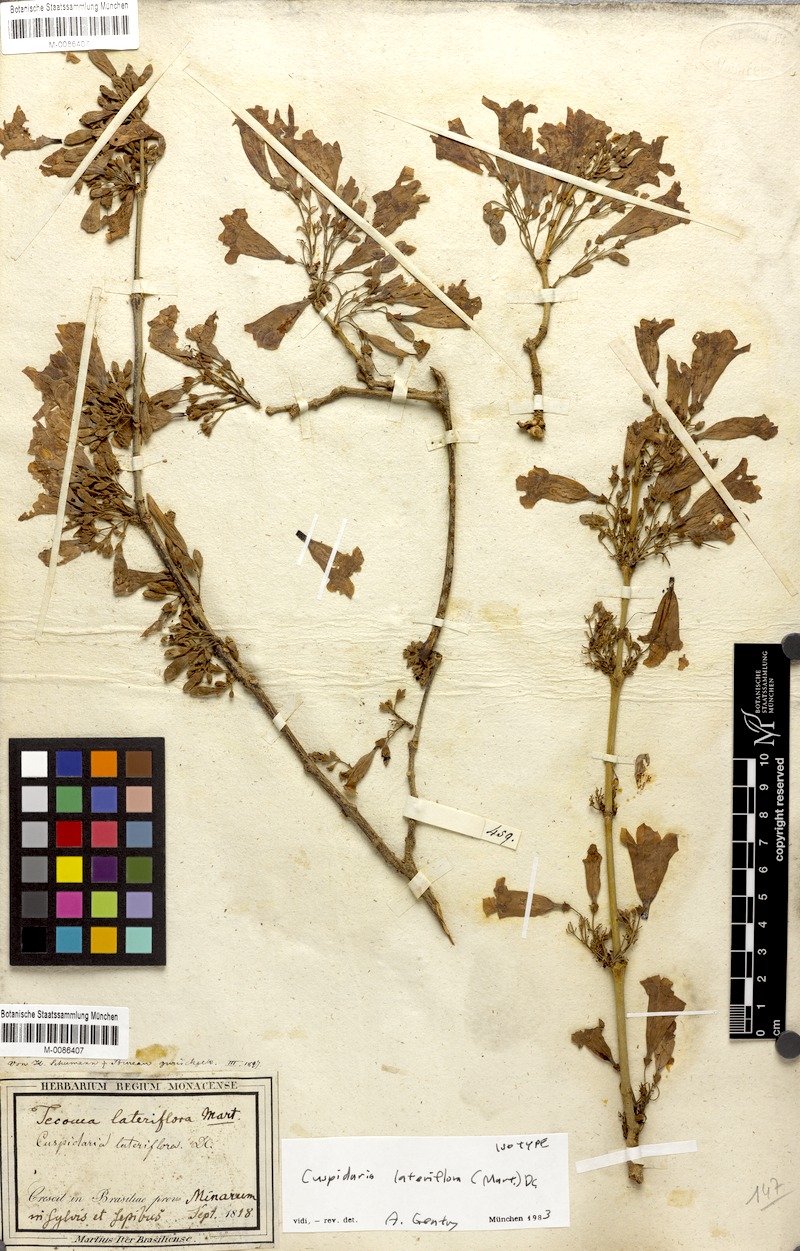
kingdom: Plantae
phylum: Tracheophyta
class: Magnoliopsida
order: Lamiales
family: Bignoniaceae
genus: Cuspidaria
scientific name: Cuspidaria lateriflora
